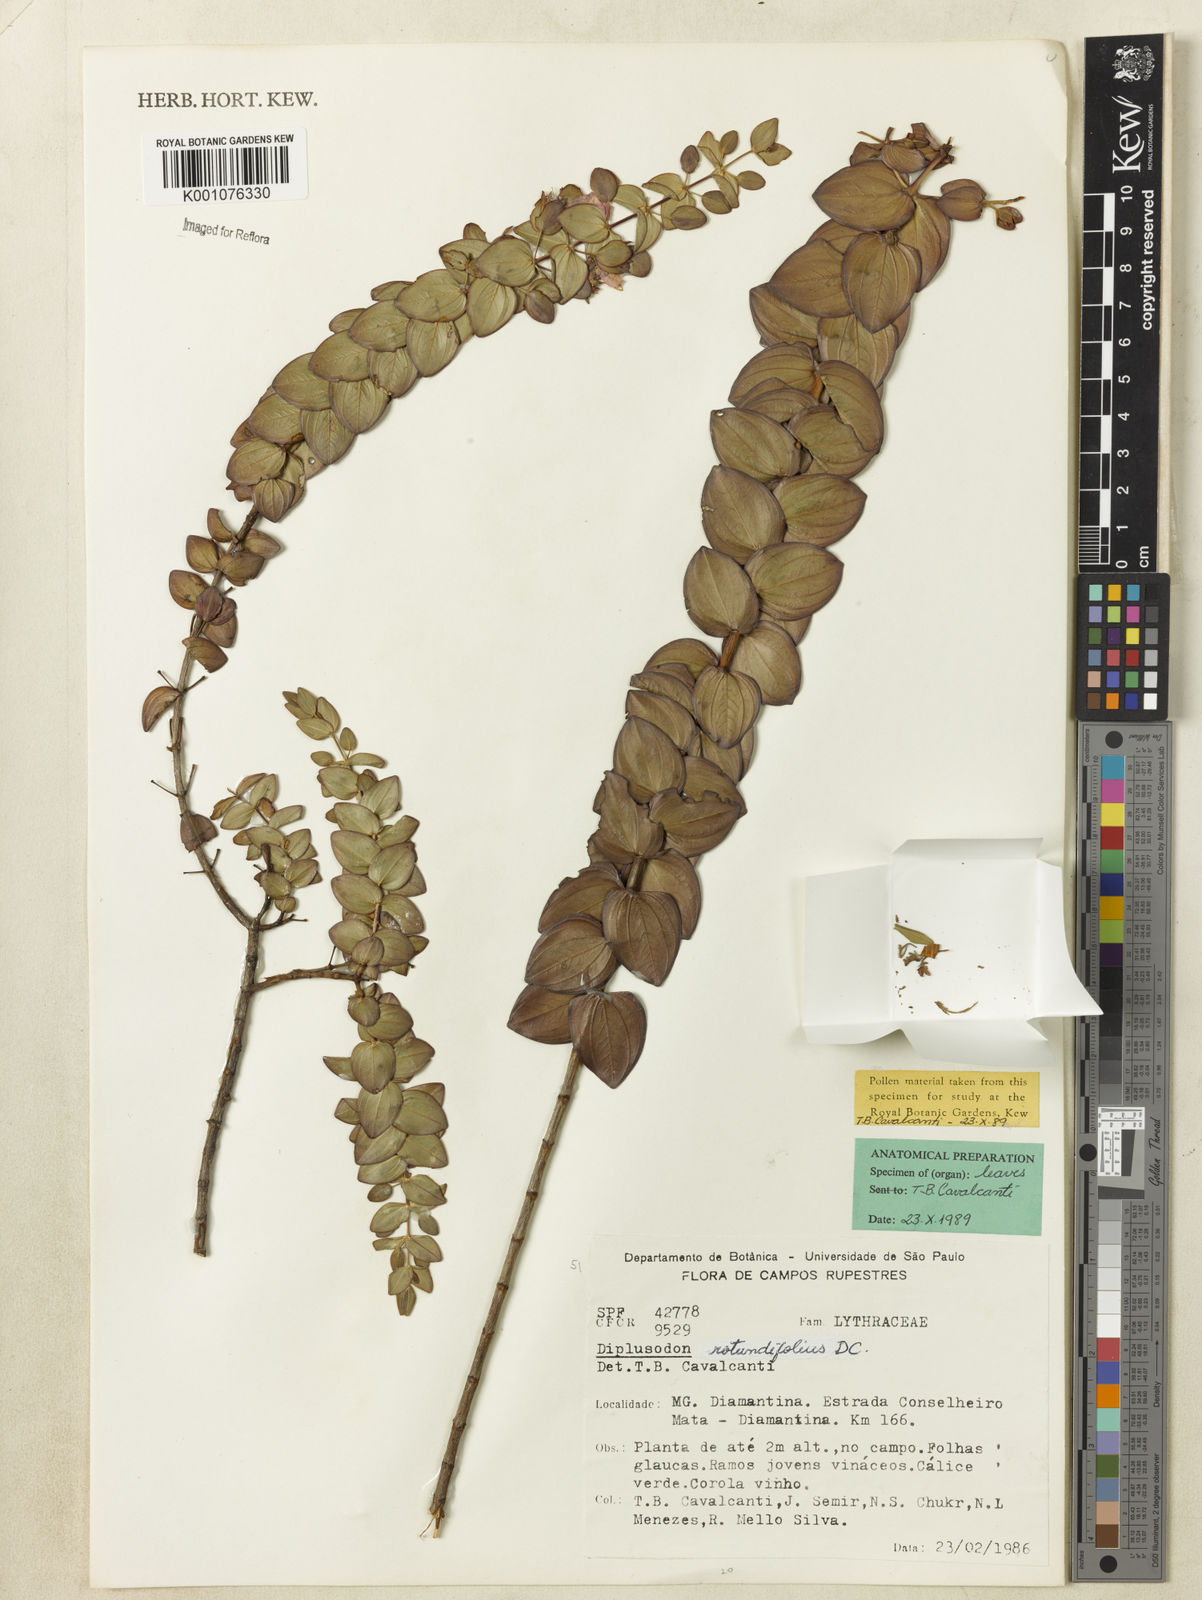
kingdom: Plantae
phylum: Tracheophyta
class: Magnoliopsida
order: Myrtales
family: Lythraceae
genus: Diplusodon
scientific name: Diplusodon rotundifolius
